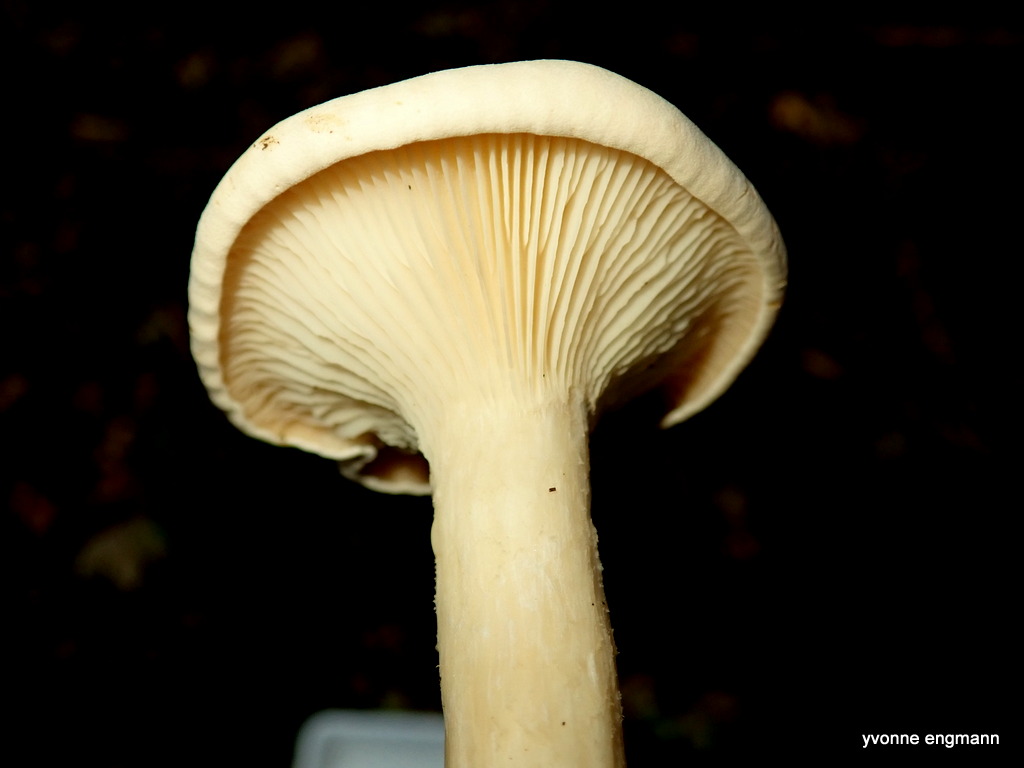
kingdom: Fungi
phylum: Basidiomycota
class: Agaricomycetes
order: Agaricales
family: Tricholomataceae
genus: Infundibulicybe
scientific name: Infundibulicybe geotropa
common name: stor tragthat
